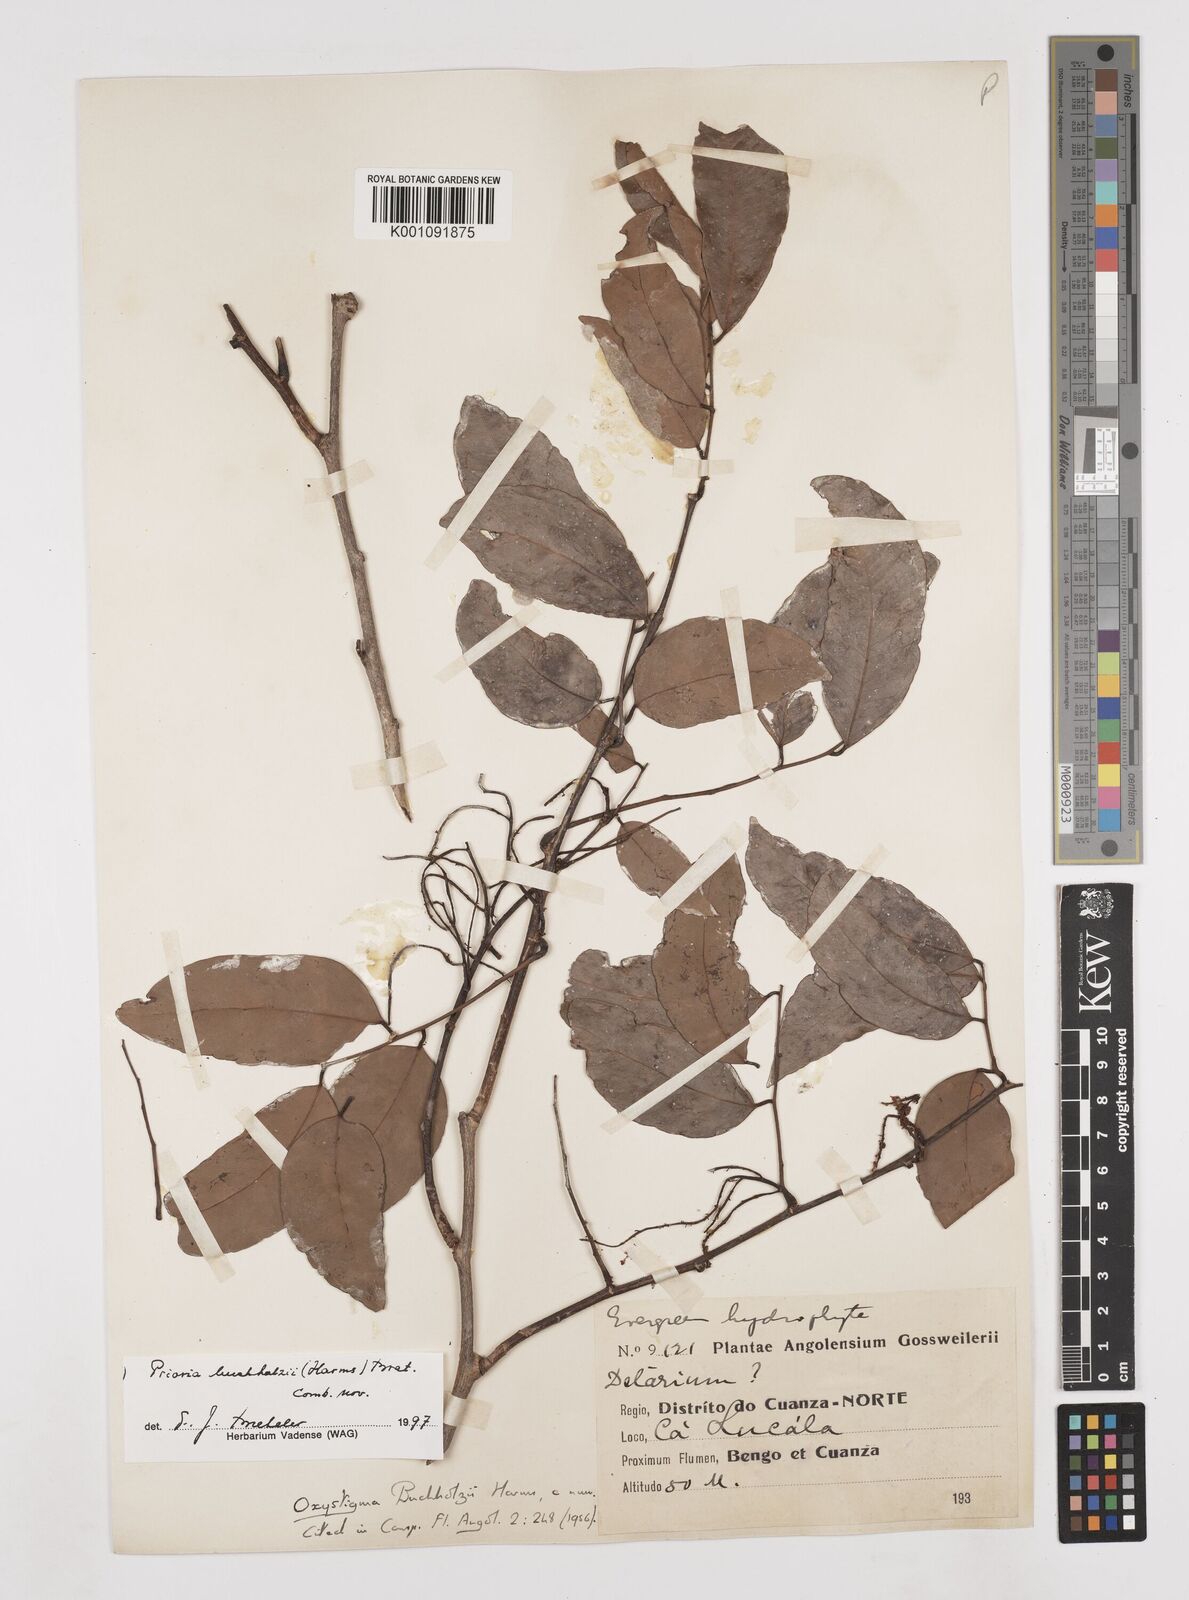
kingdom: Plantae
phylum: Tracheophyta
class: Magnoliopsida
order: Fabales
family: Fabaceae
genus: Prioria
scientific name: Prioria buchholzii
